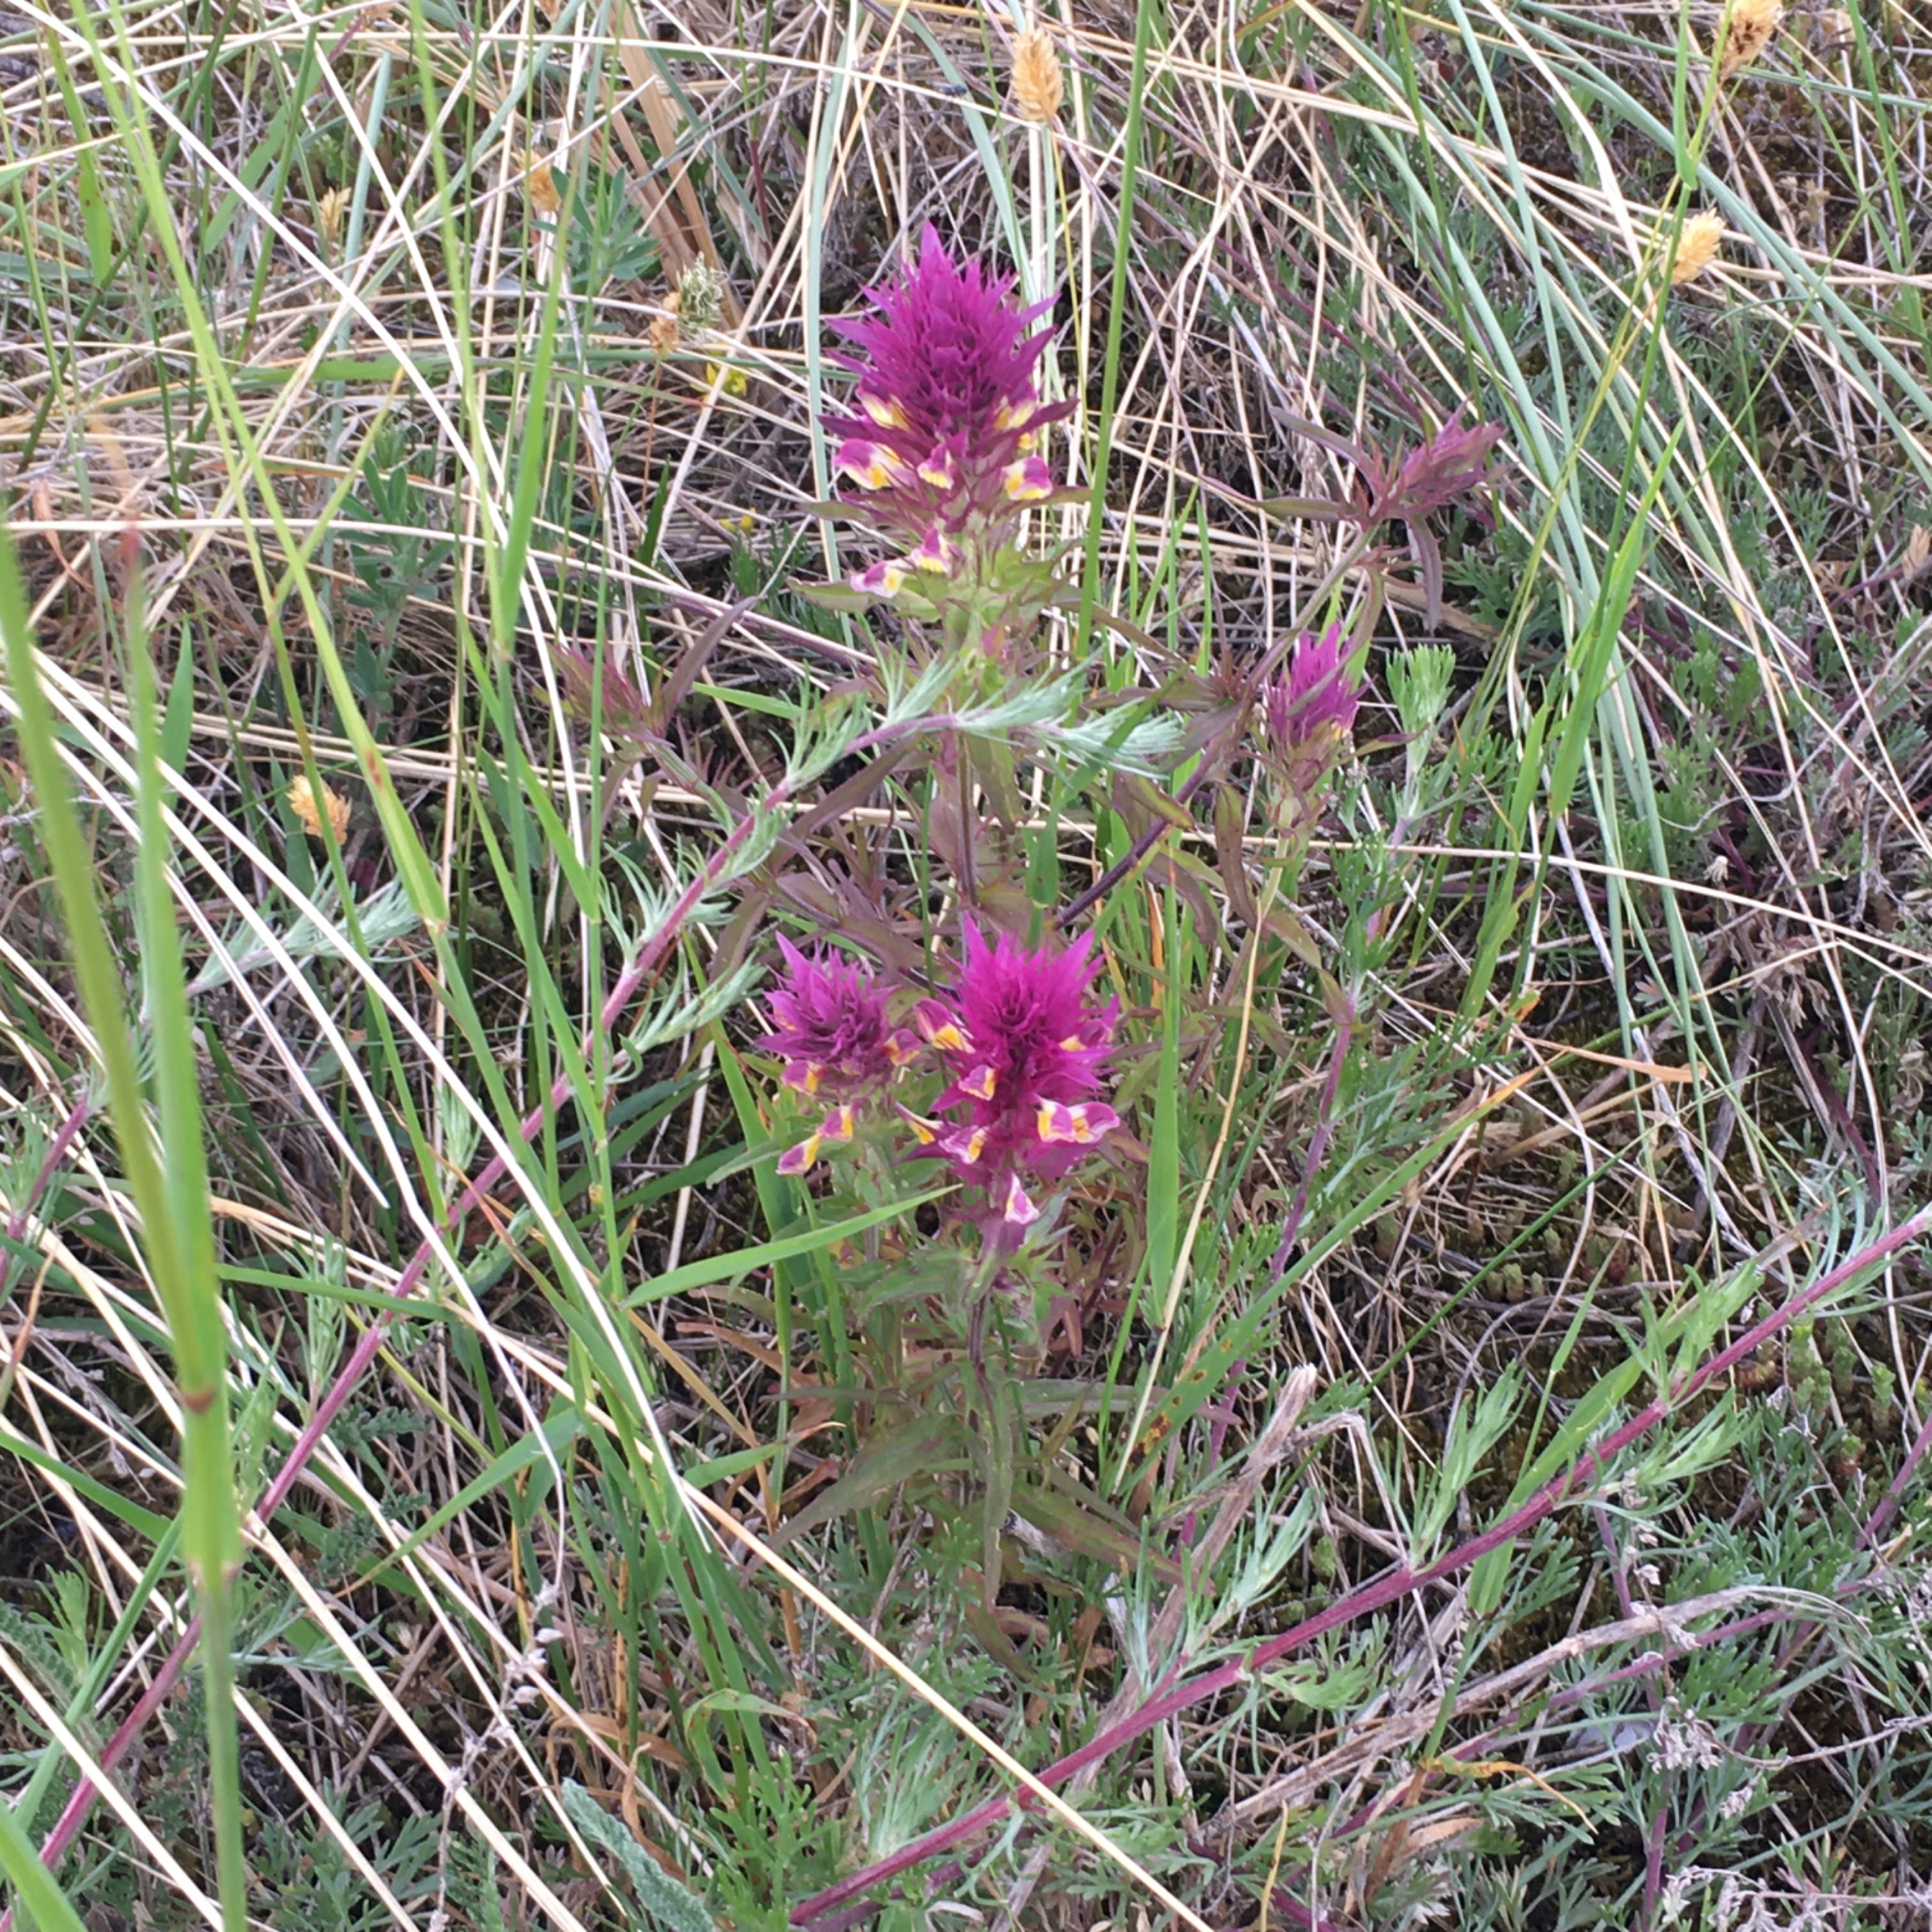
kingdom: Plantae
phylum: Tracheophyta
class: Magnoliopsida
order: Lamiales
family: Orobanchaceae
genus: Melampyrum
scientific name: Melampyrum arvense
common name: Ager-kohvede
